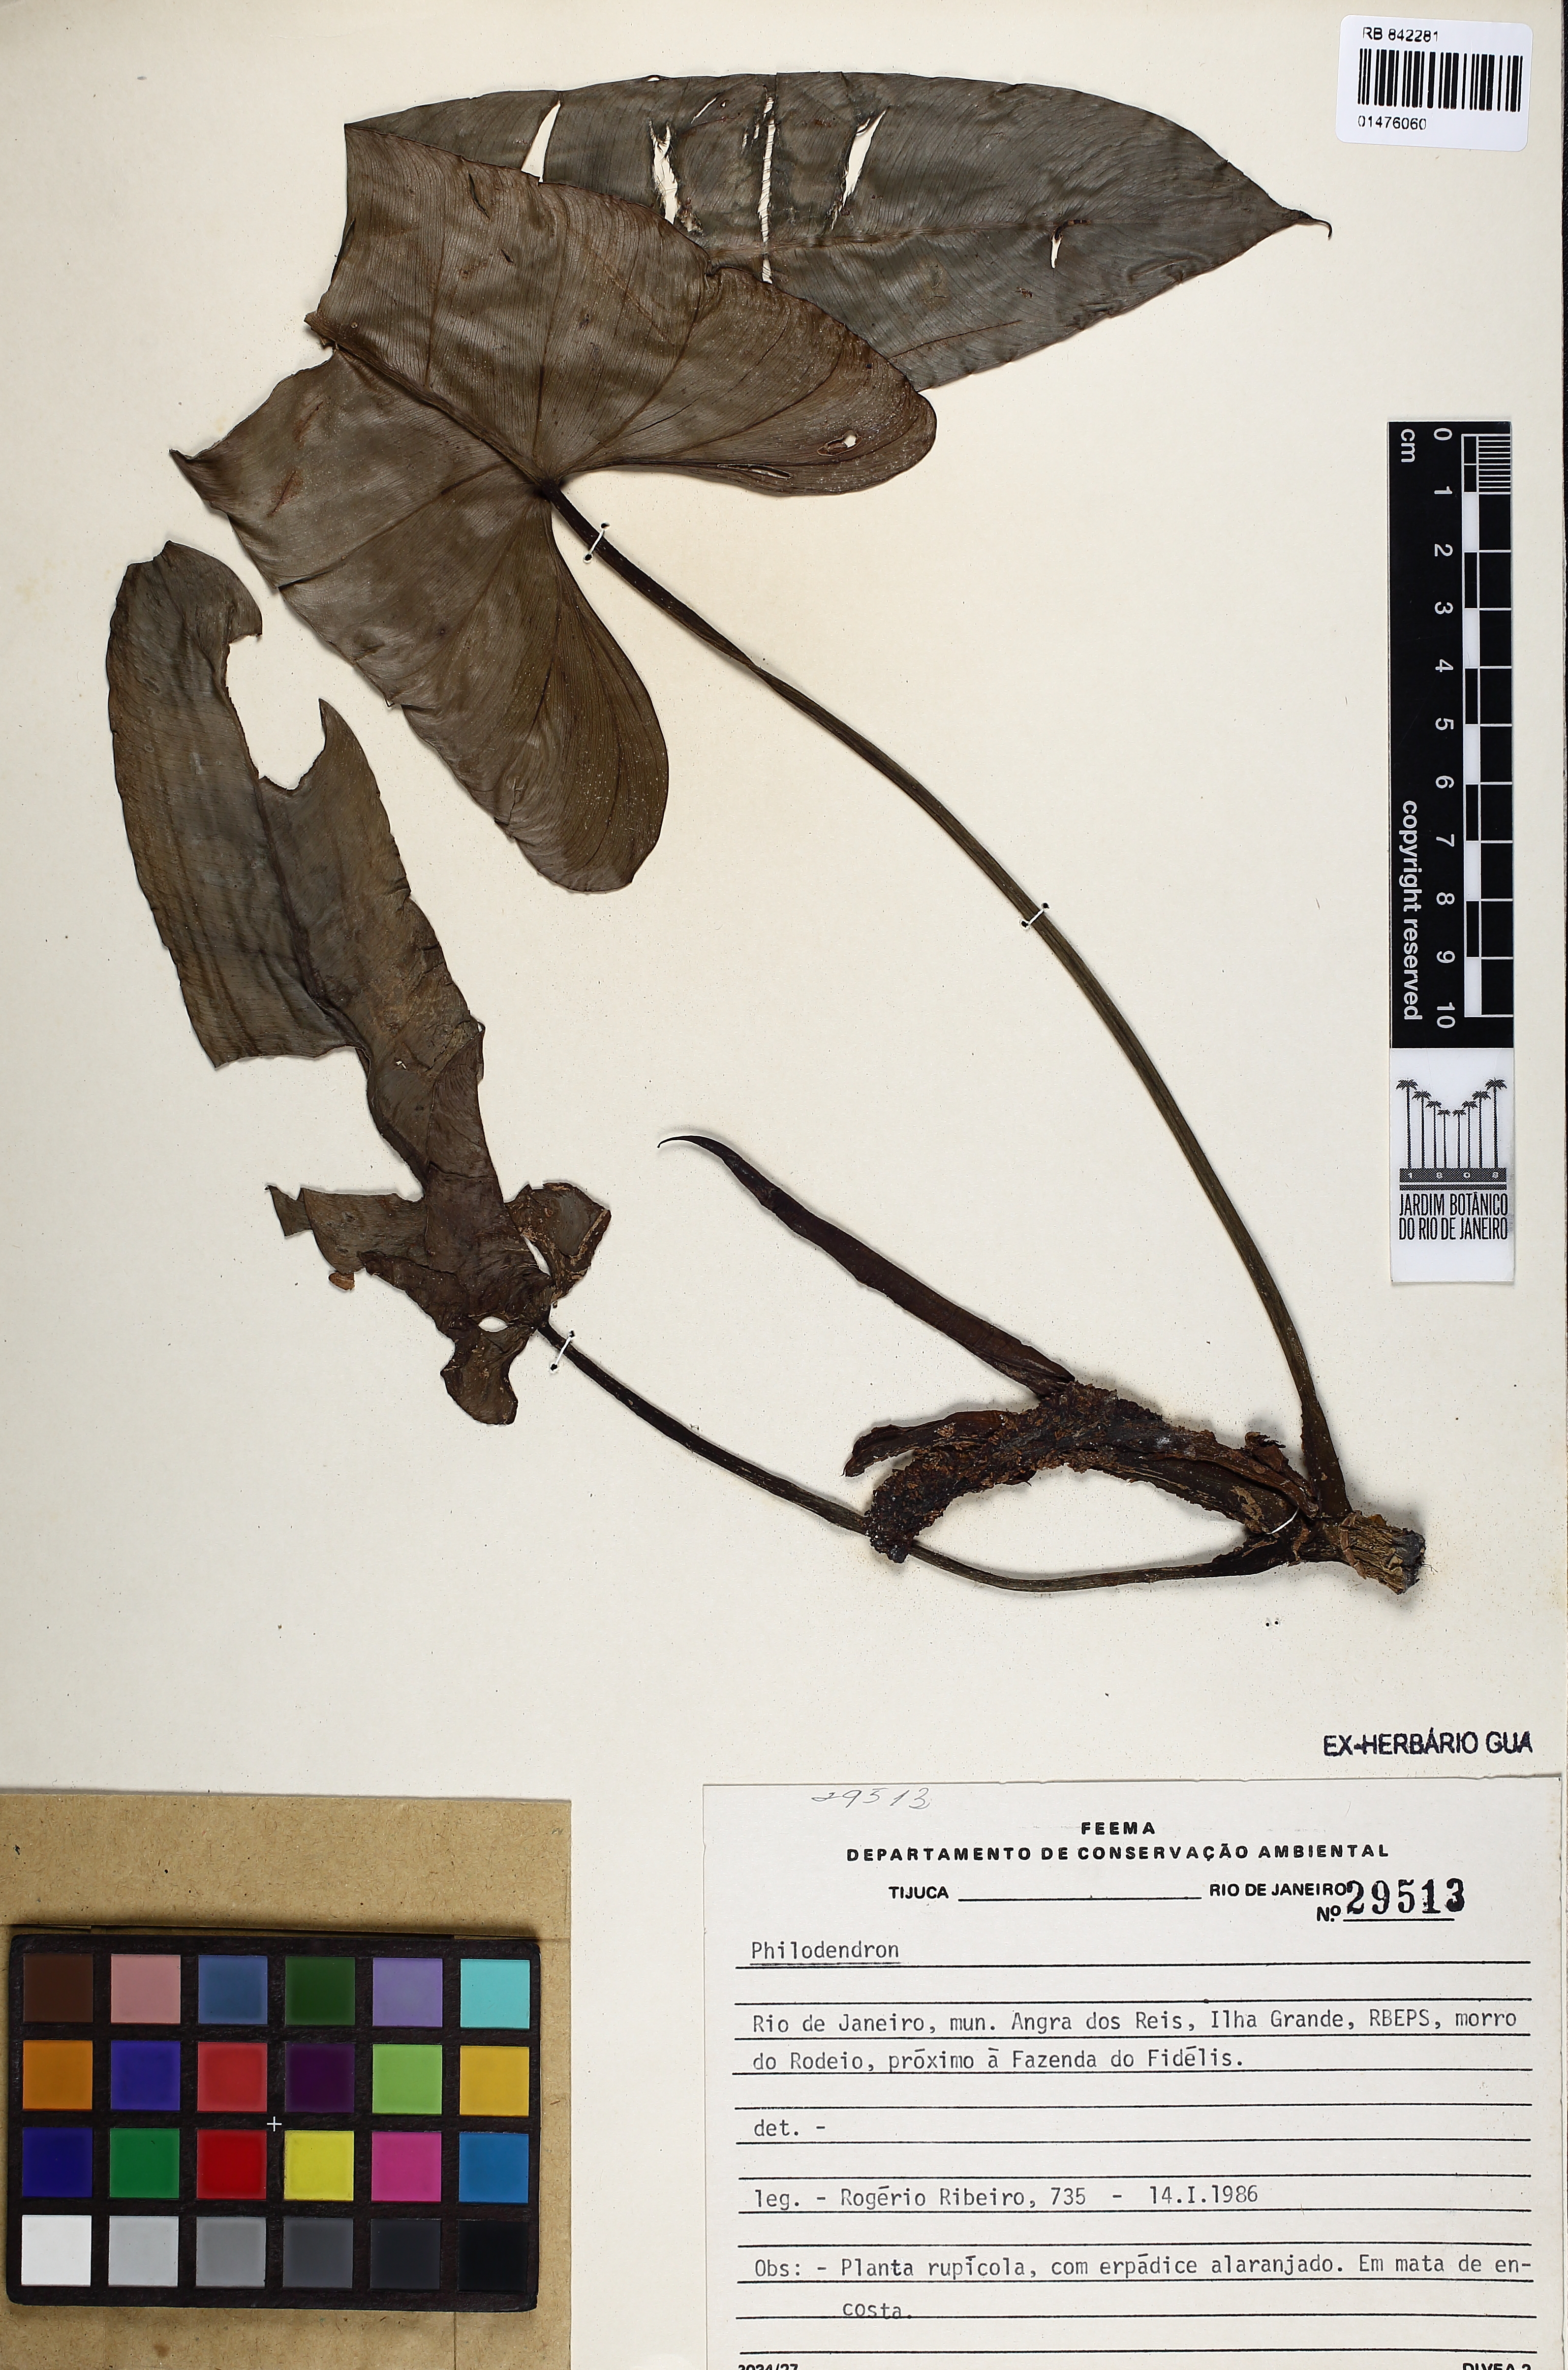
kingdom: Plantae
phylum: Tracheophyta
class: Liliopsida
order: Alismatales
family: Araceae
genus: Philodendron
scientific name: Philodendron
